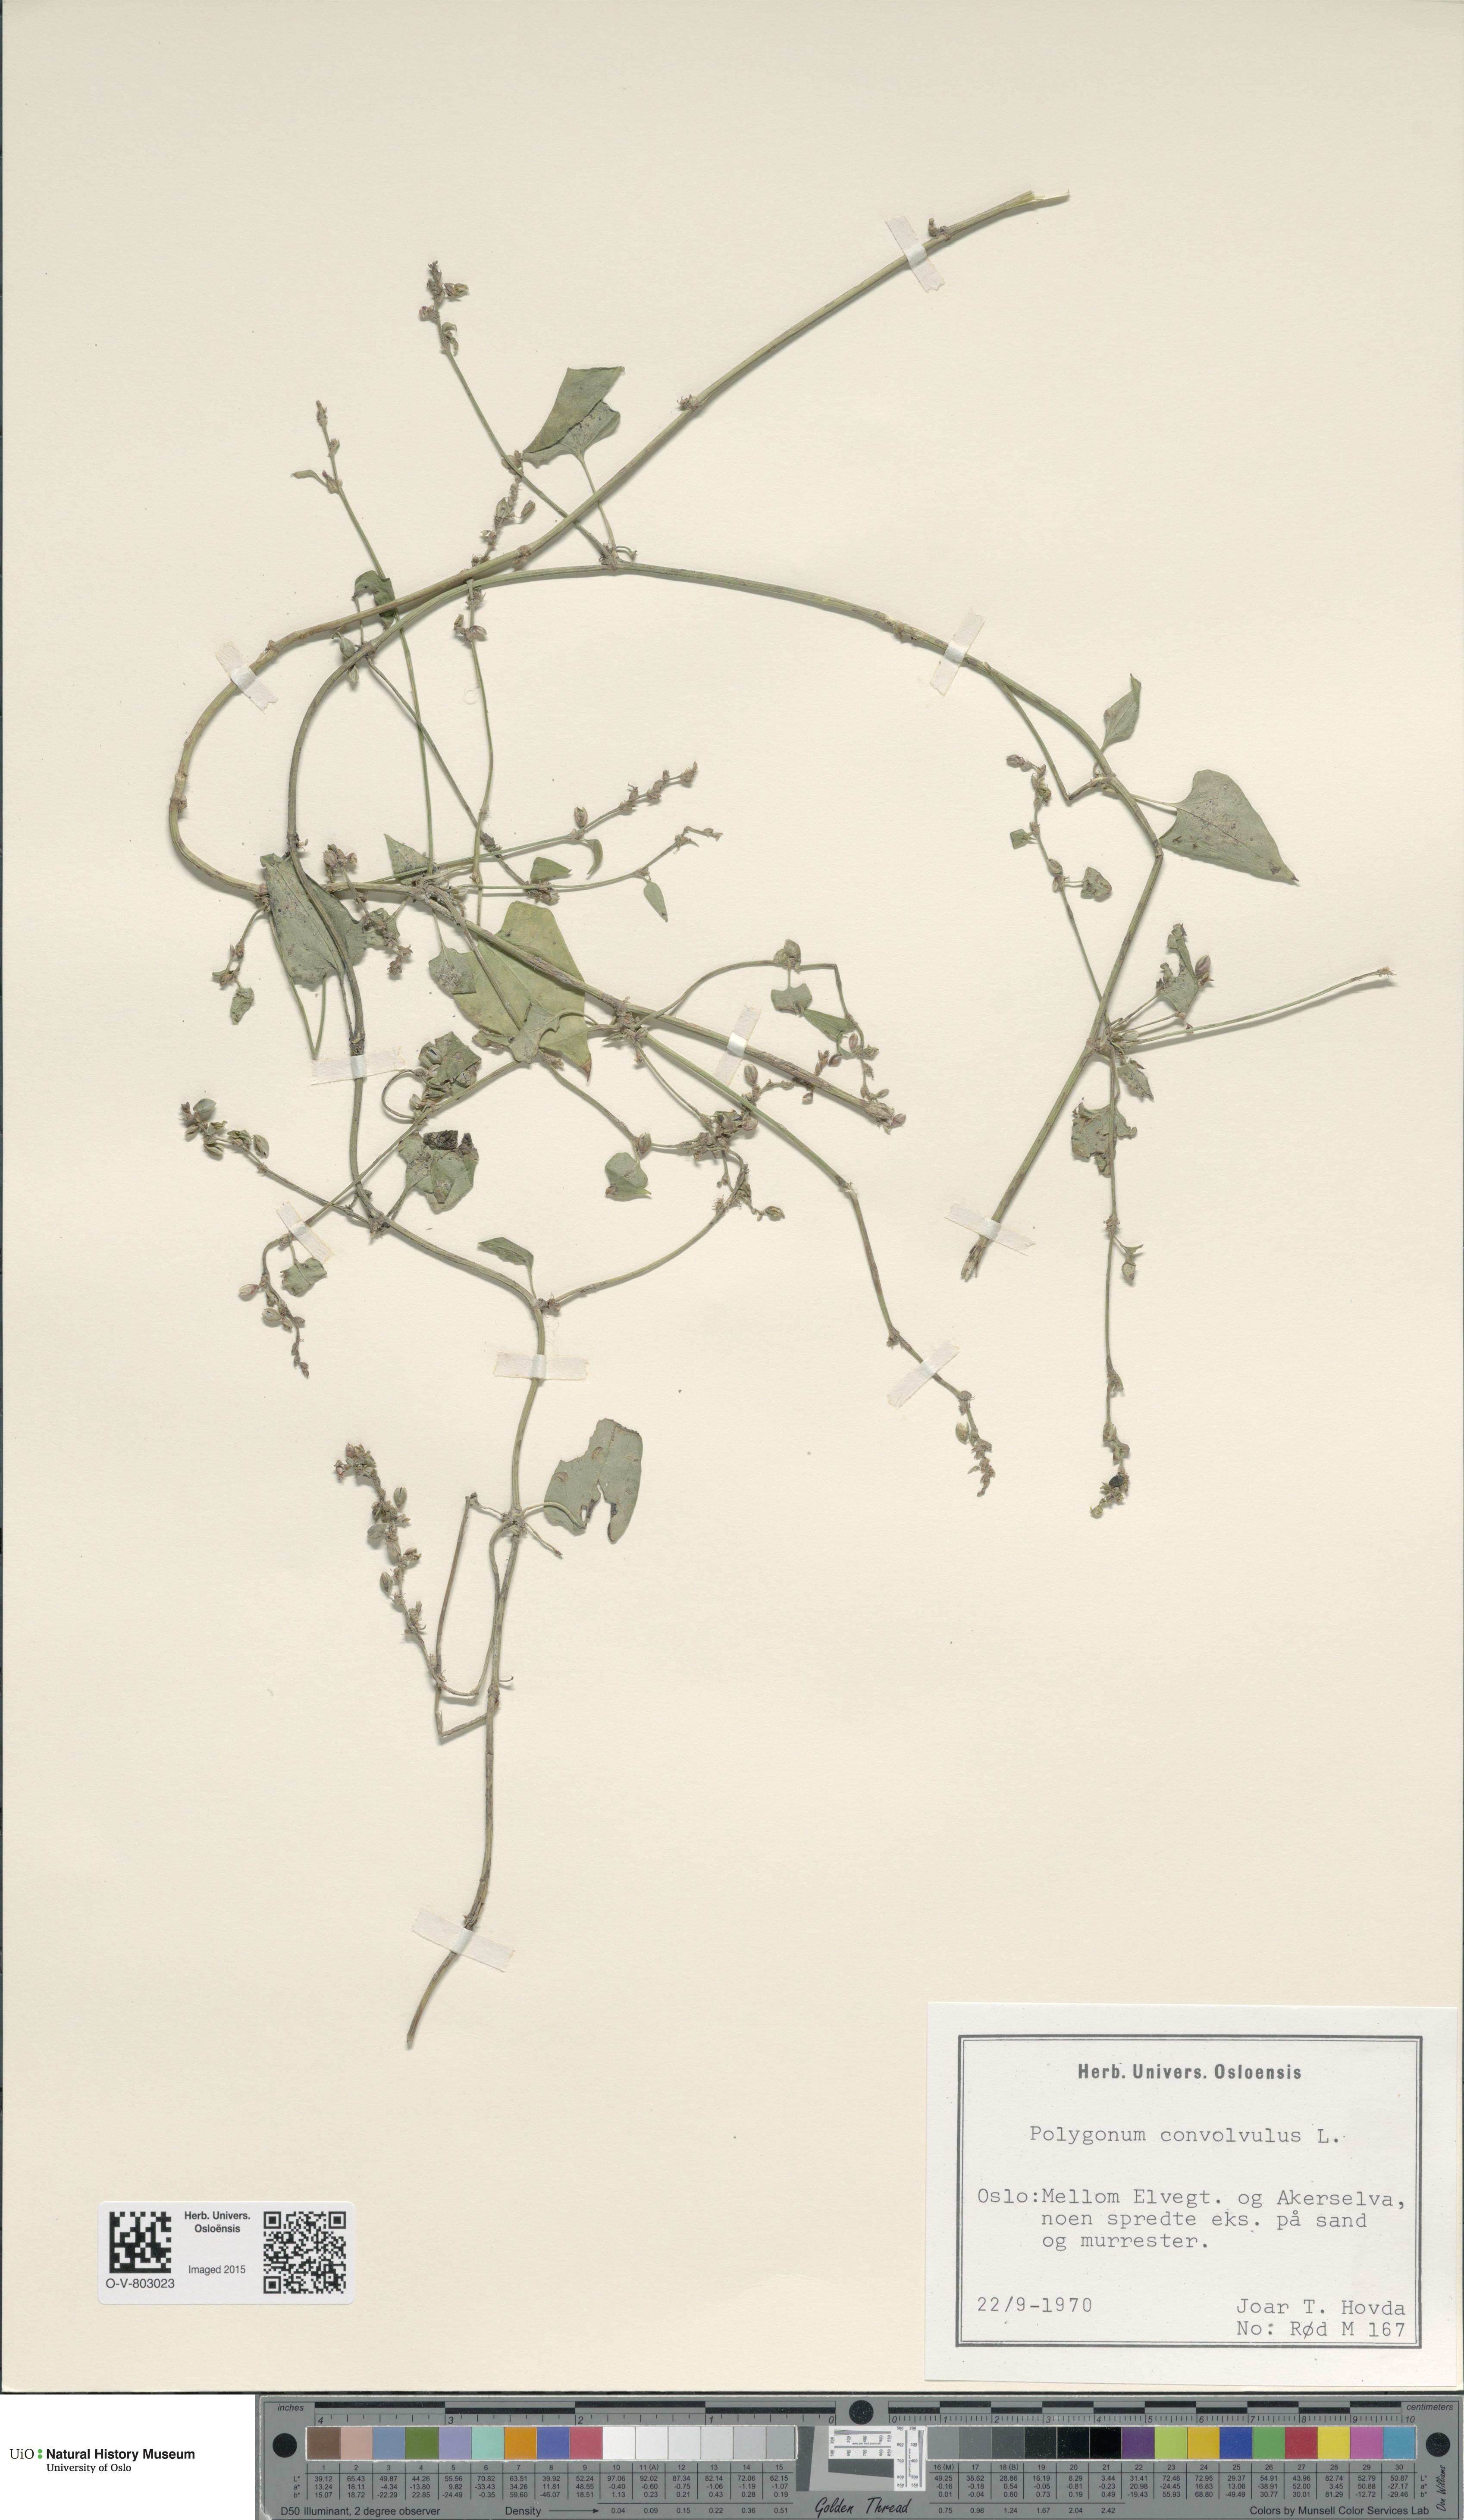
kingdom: Plantae
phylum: Tracheophyta
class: Magnoliopsida
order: Caryophyllales
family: Polygonaceae
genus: Fallopia
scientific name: Fallopia convolvulus
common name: Black bindweed
